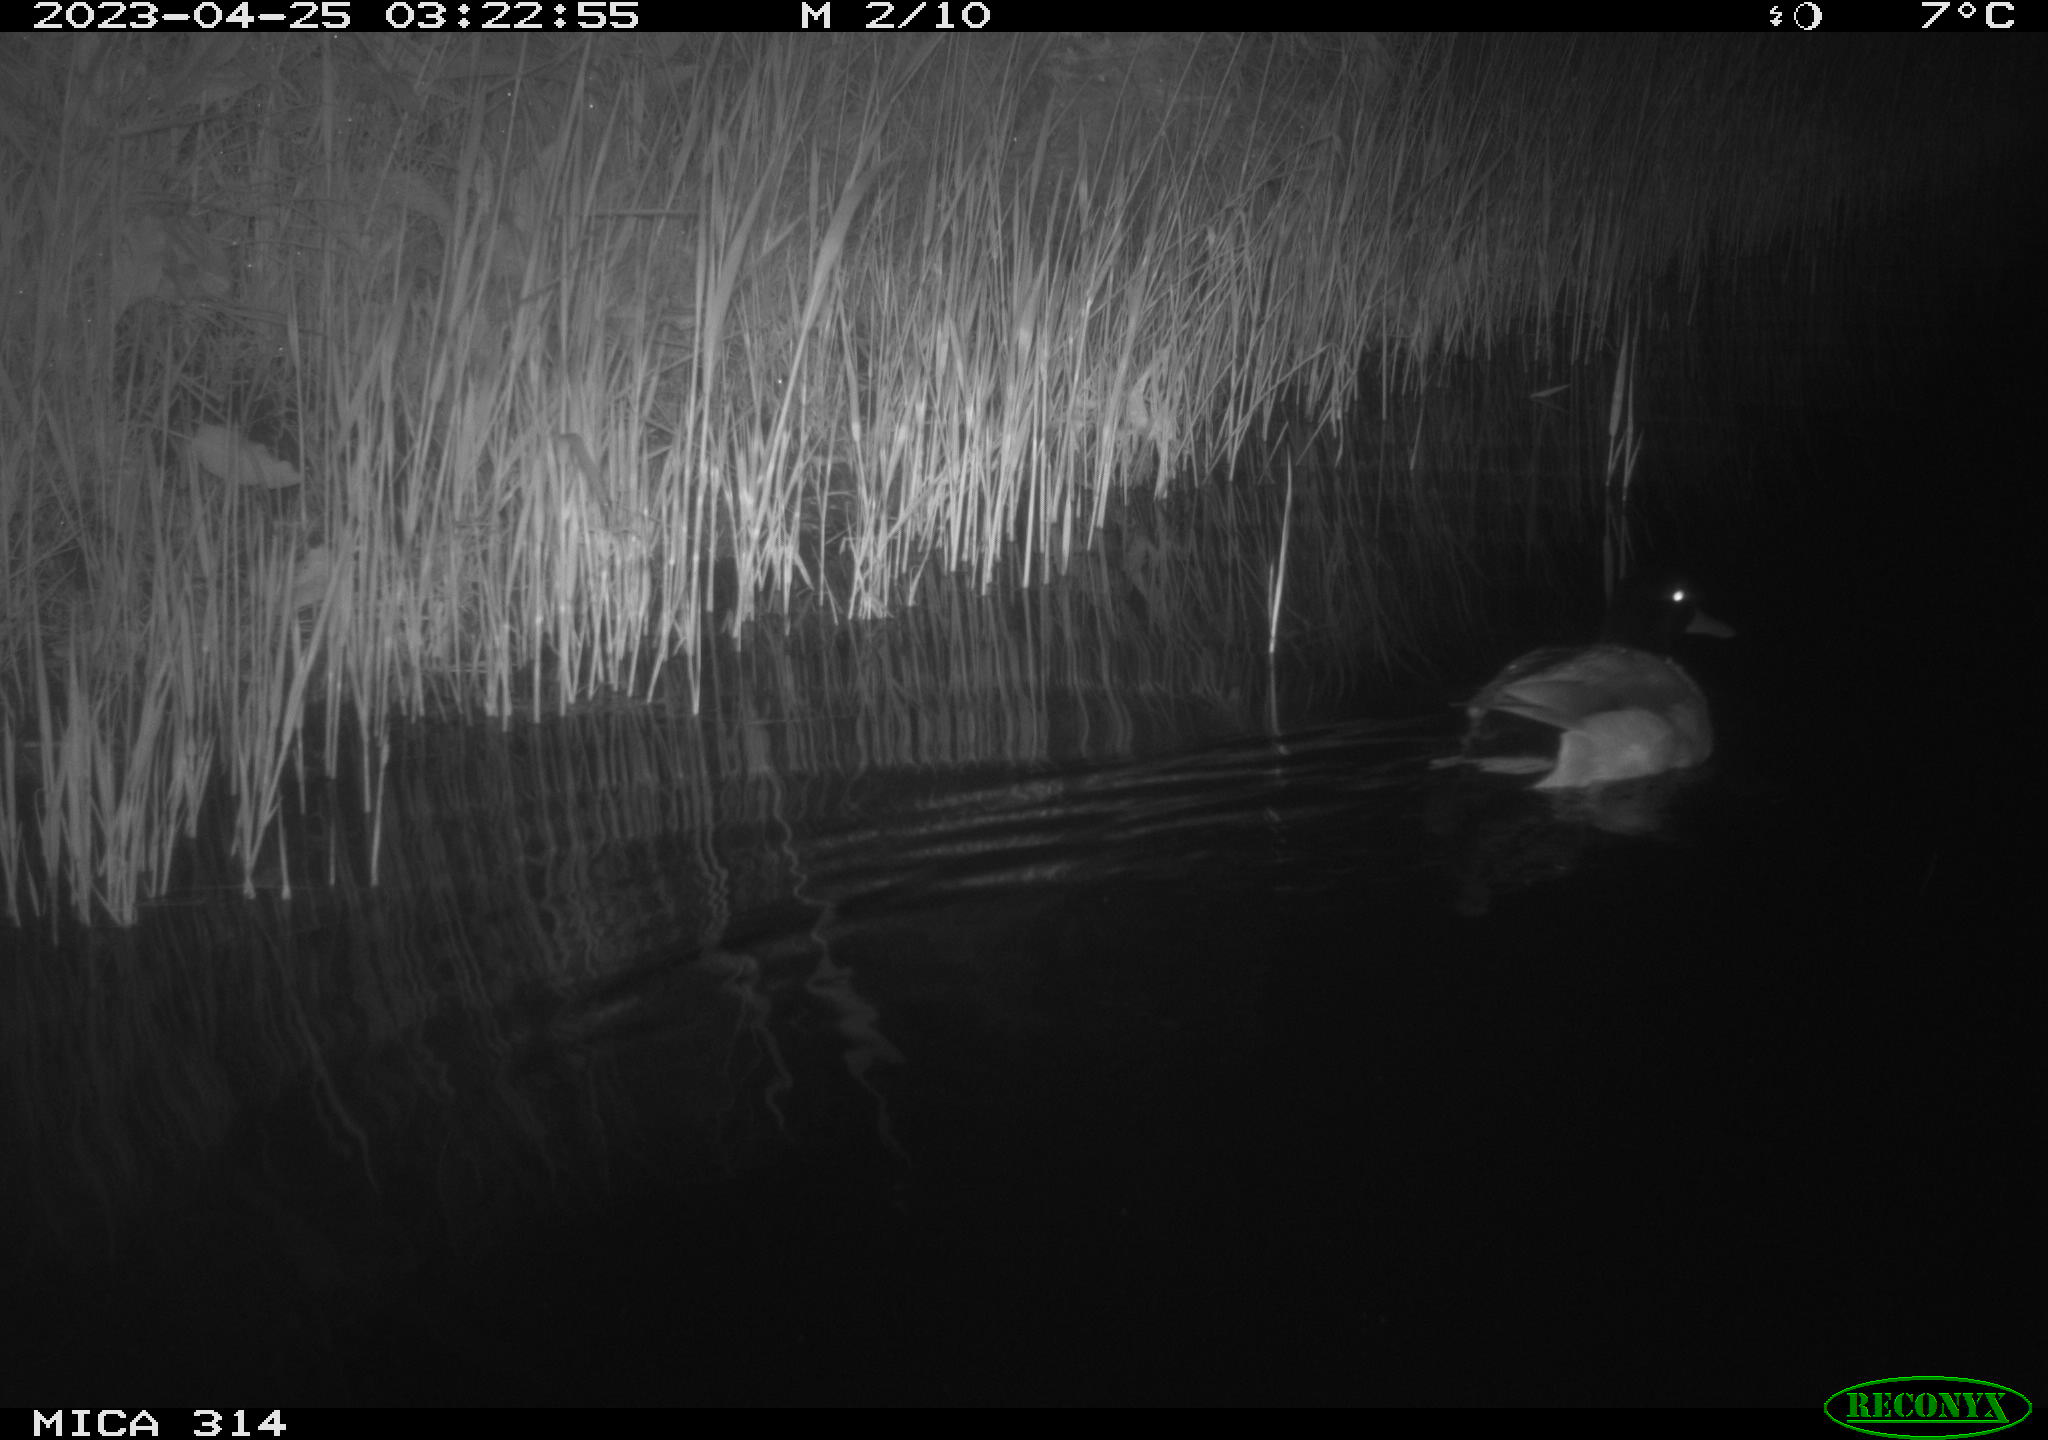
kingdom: Animalia
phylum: Chordata
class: Aves
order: Anseriformes
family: Anatidae
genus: Anas
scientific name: Anas
